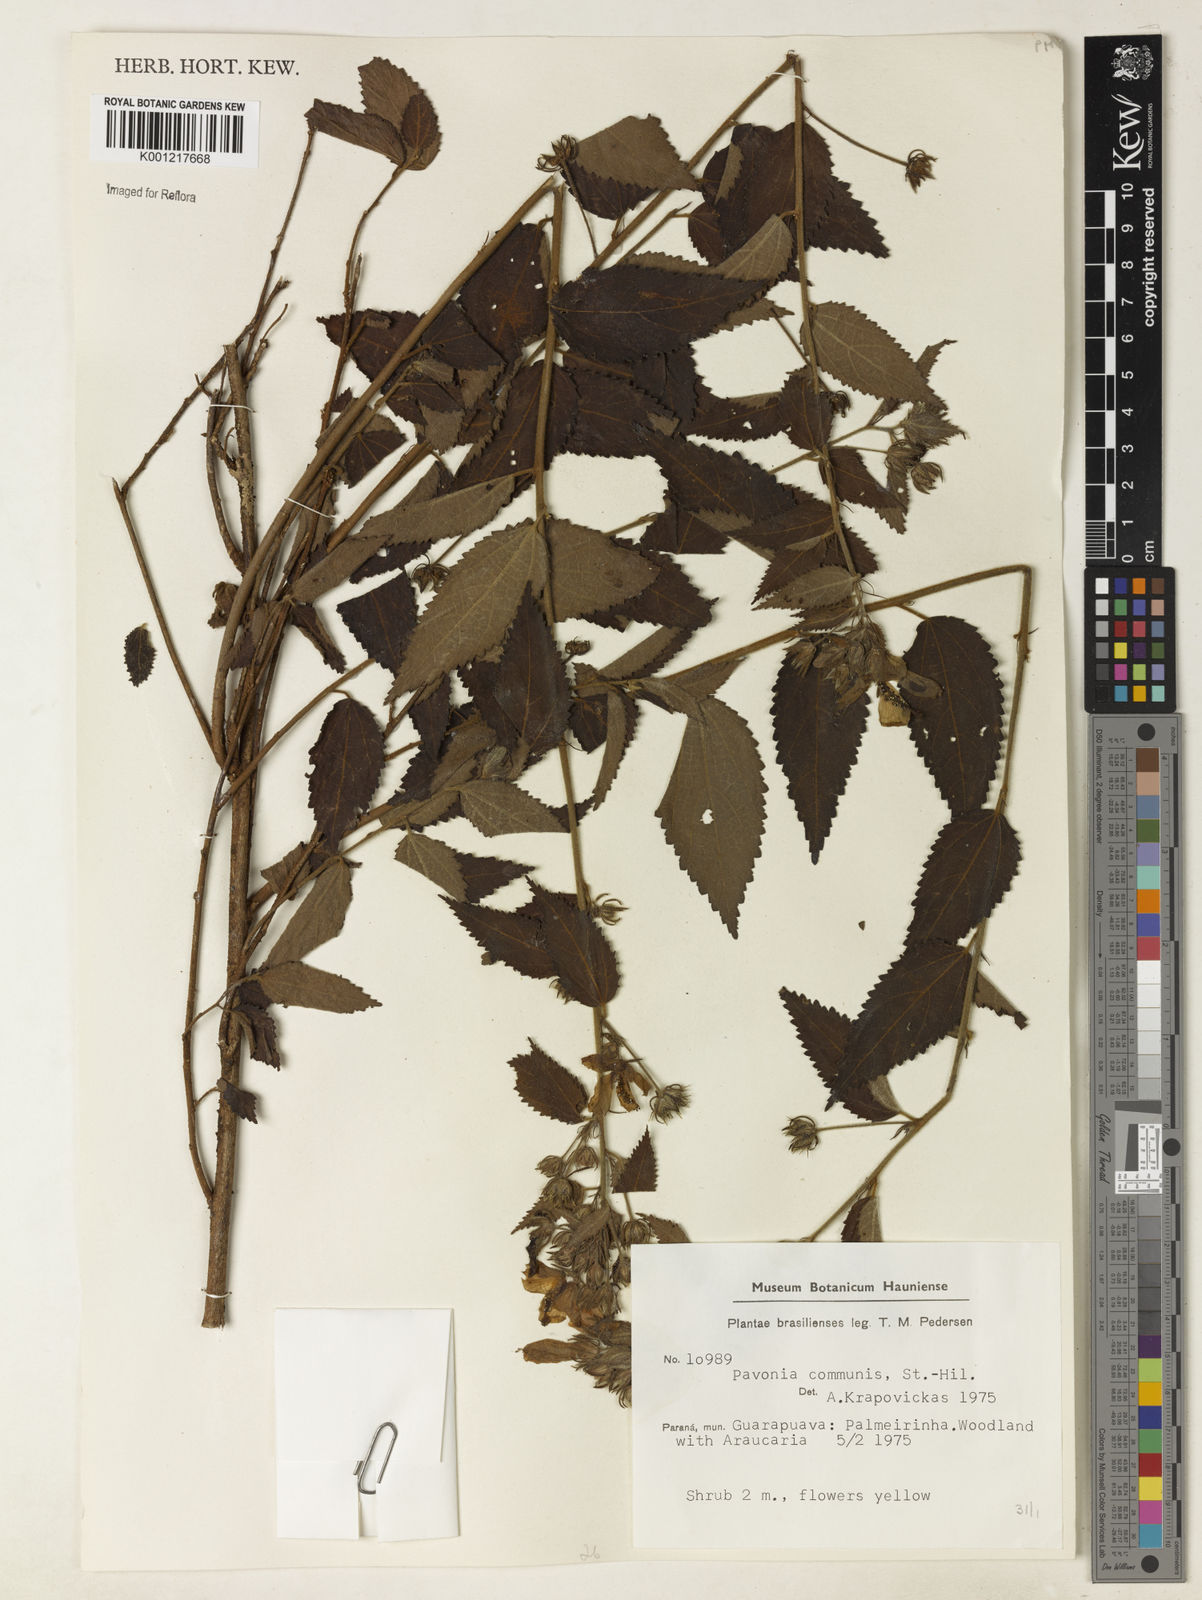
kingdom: Plantae
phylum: Tracheophyta
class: Magnoliopsida
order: Malvales
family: Malvaceae
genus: Pavonia
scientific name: Pavonia communis
